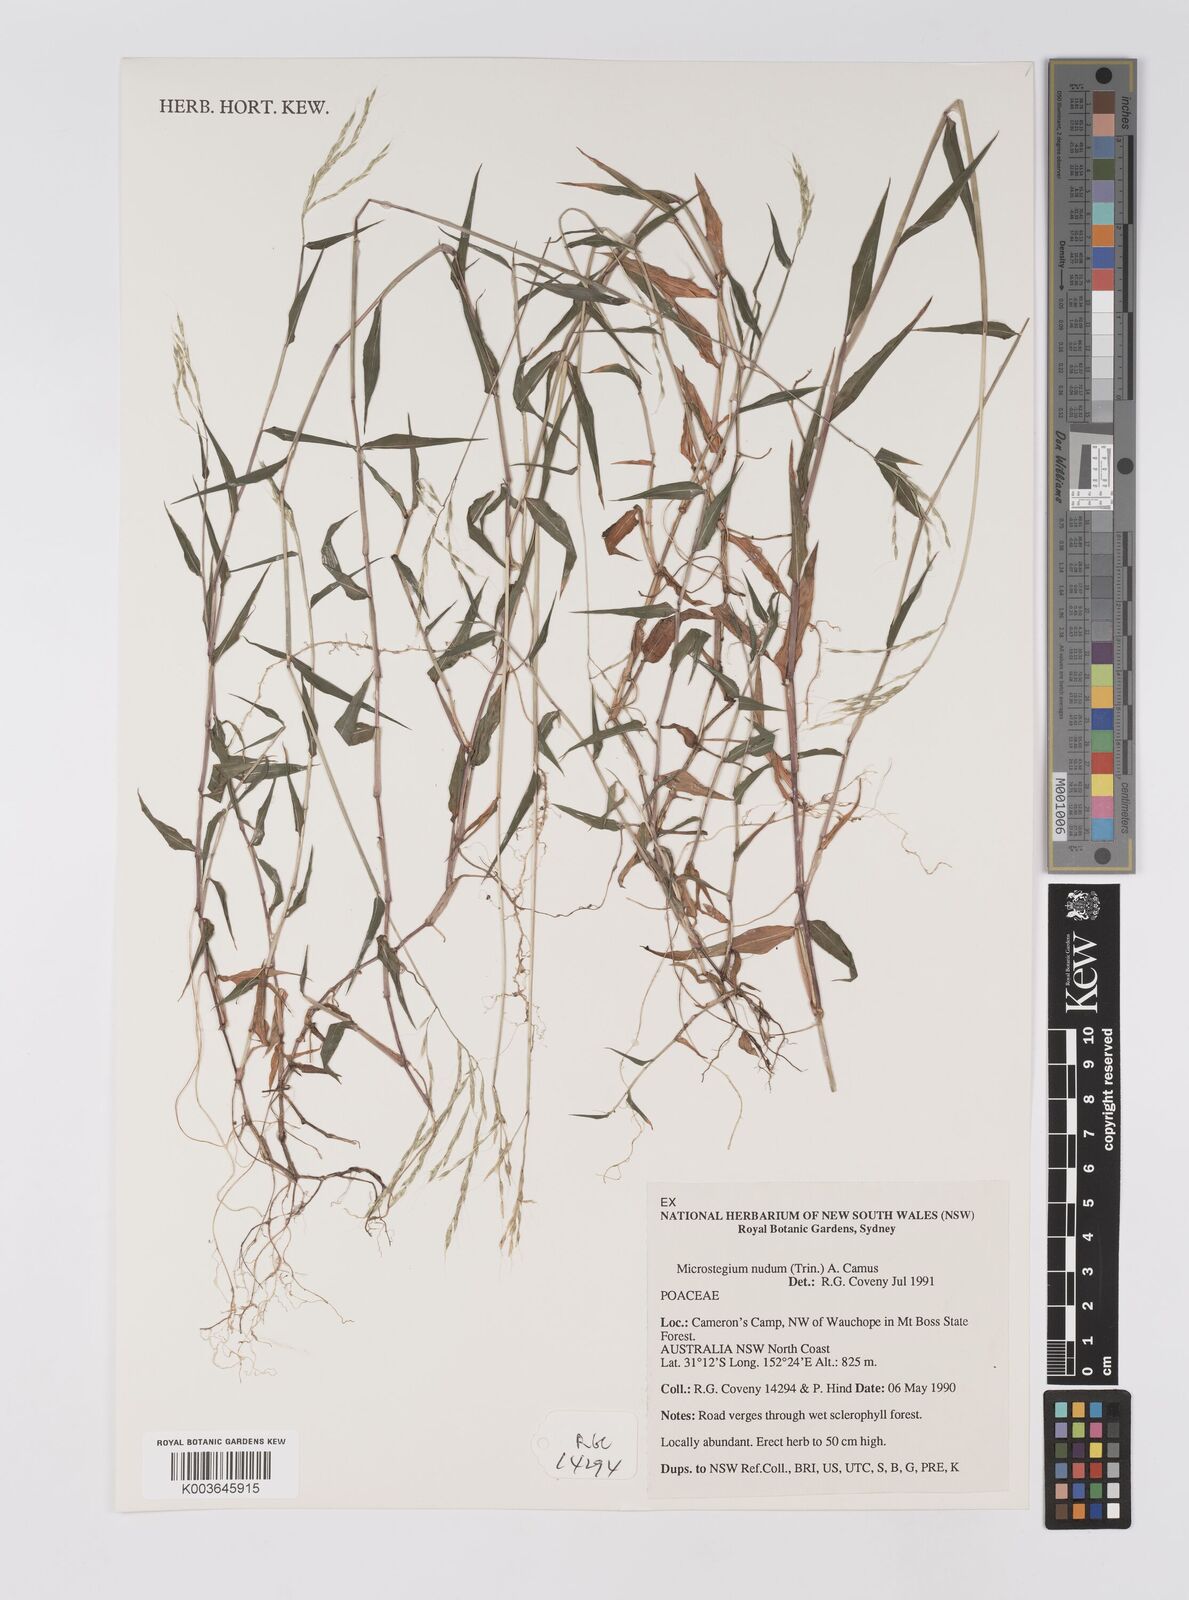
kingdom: Plantae
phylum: Tracheophyta
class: Liliopsida
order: Poales
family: Poaceae
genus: Microstegium
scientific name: Microstegium nudum
